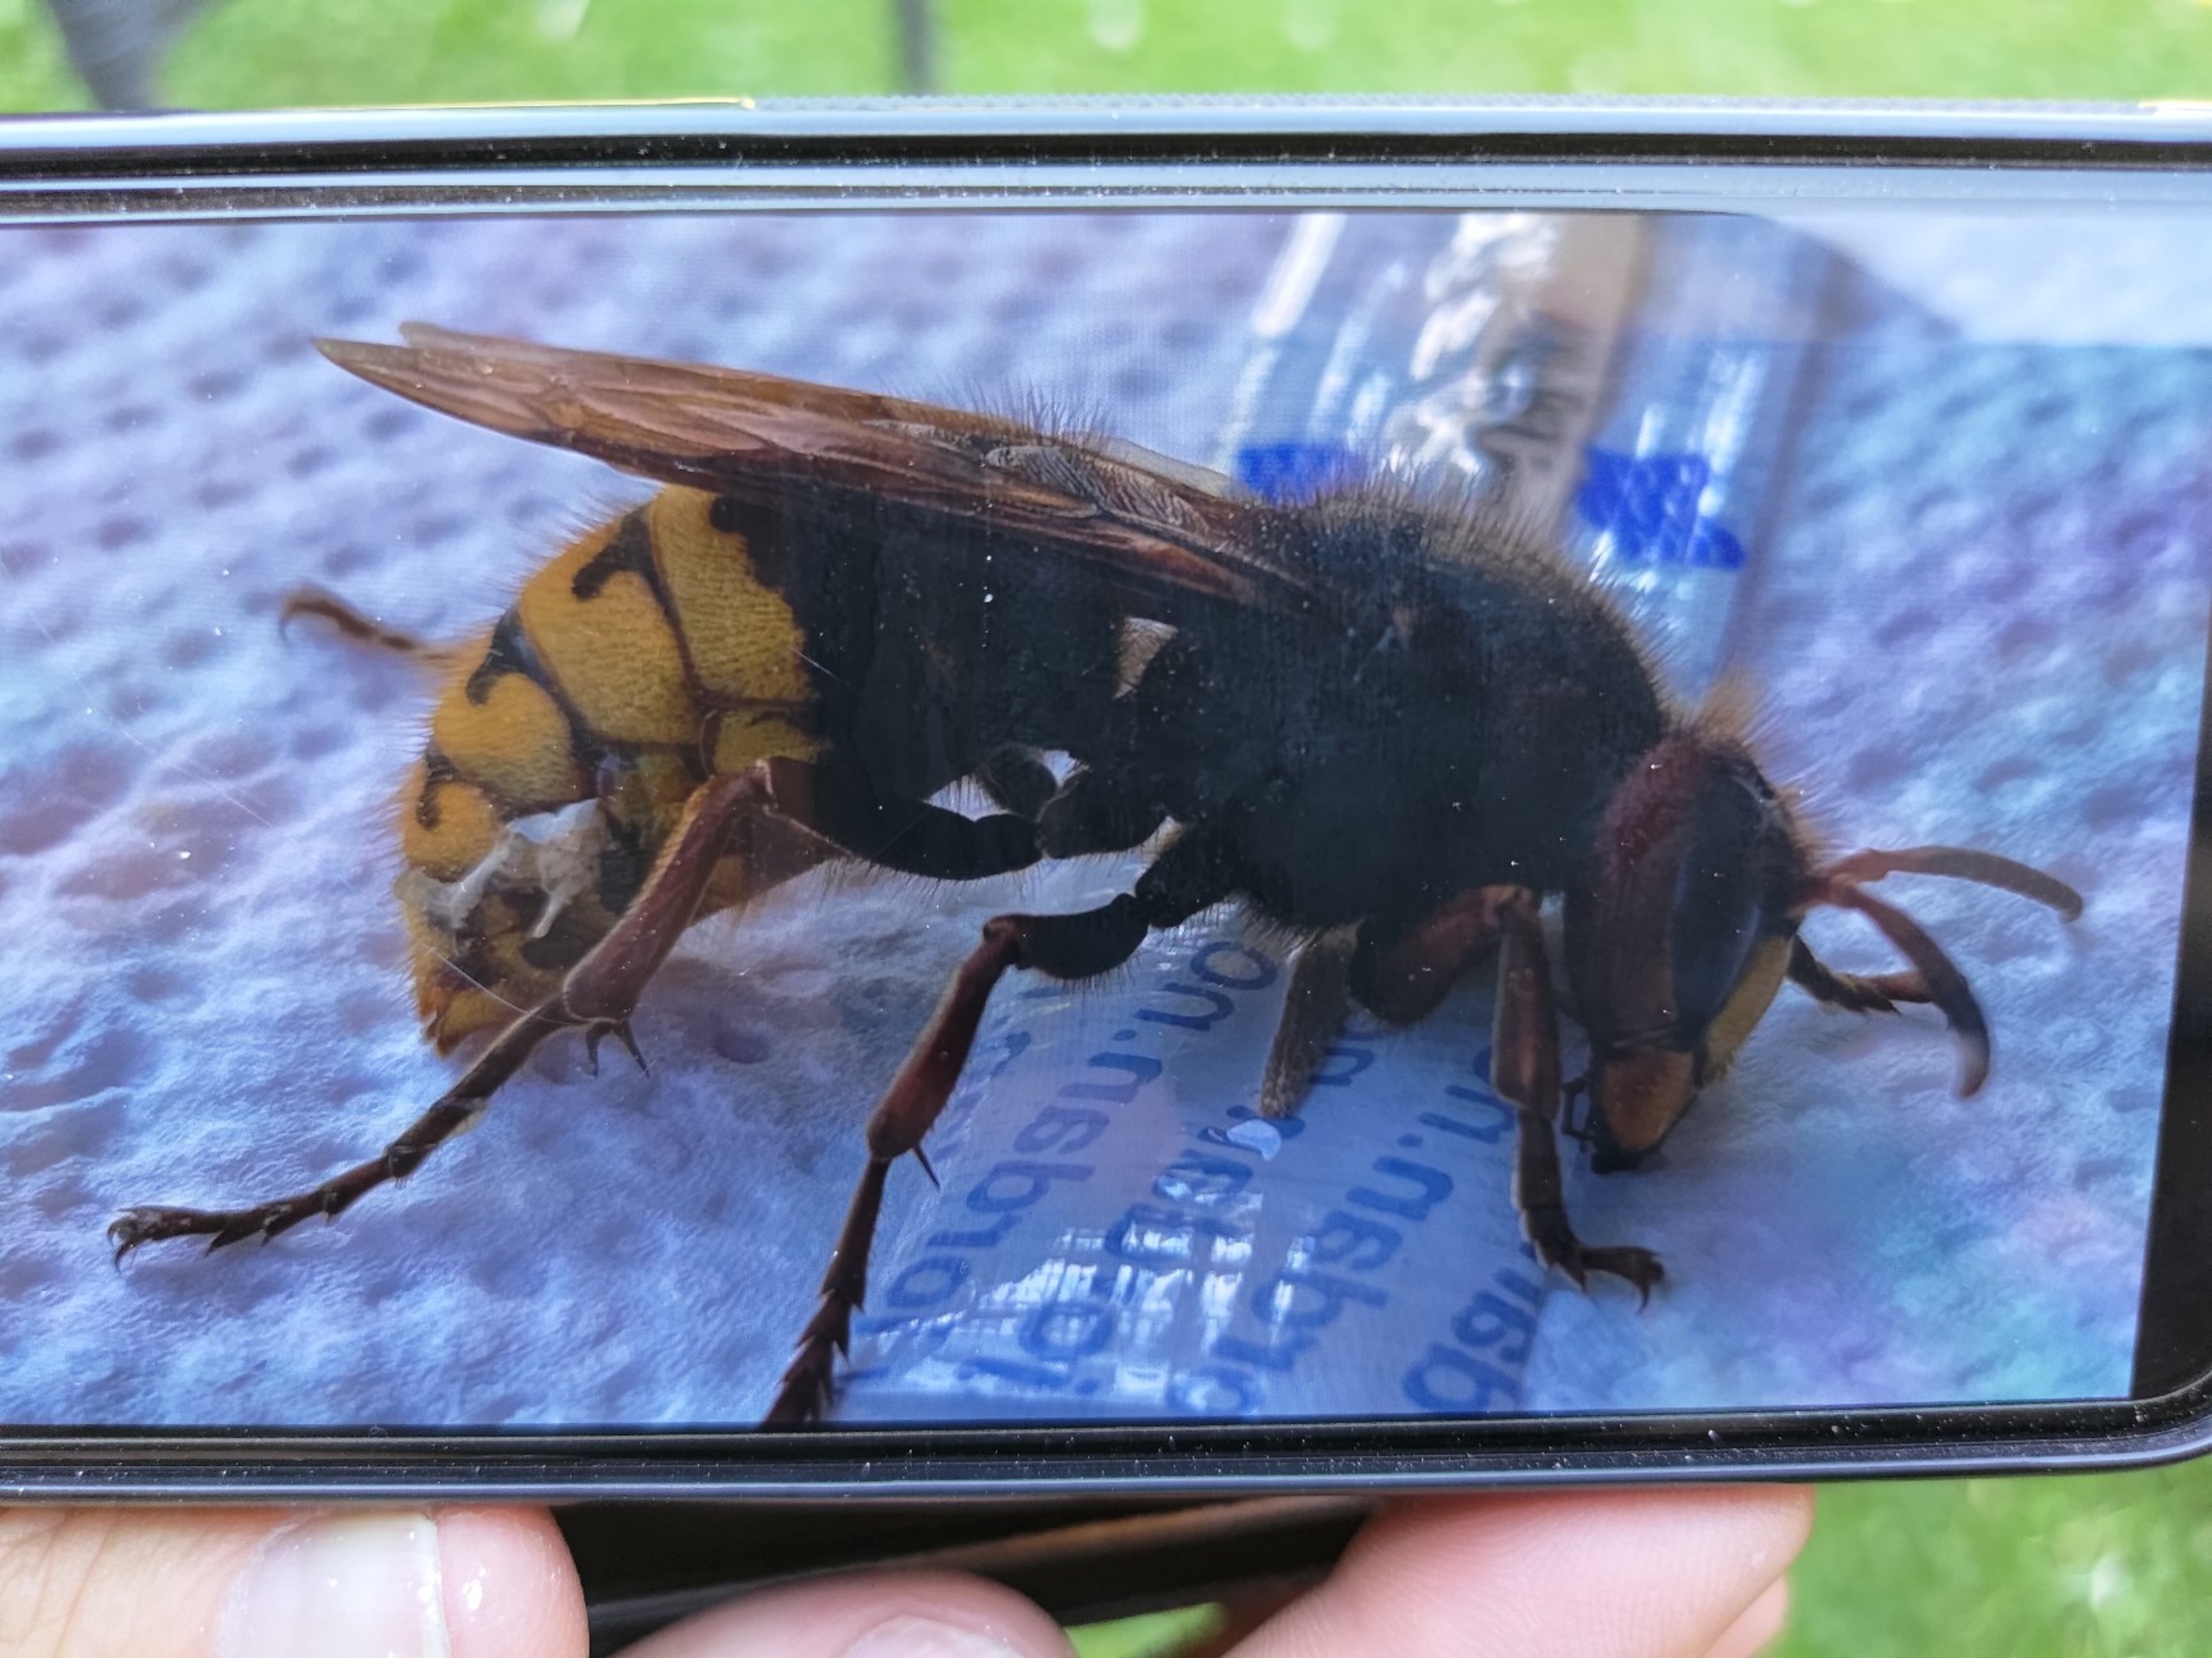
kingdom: Animalia
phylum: Arthropoda
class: Insecta
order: Hymenoptera
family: Vespidae
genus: Vespa
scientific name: Vespa crabro
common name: Stor gedehams
